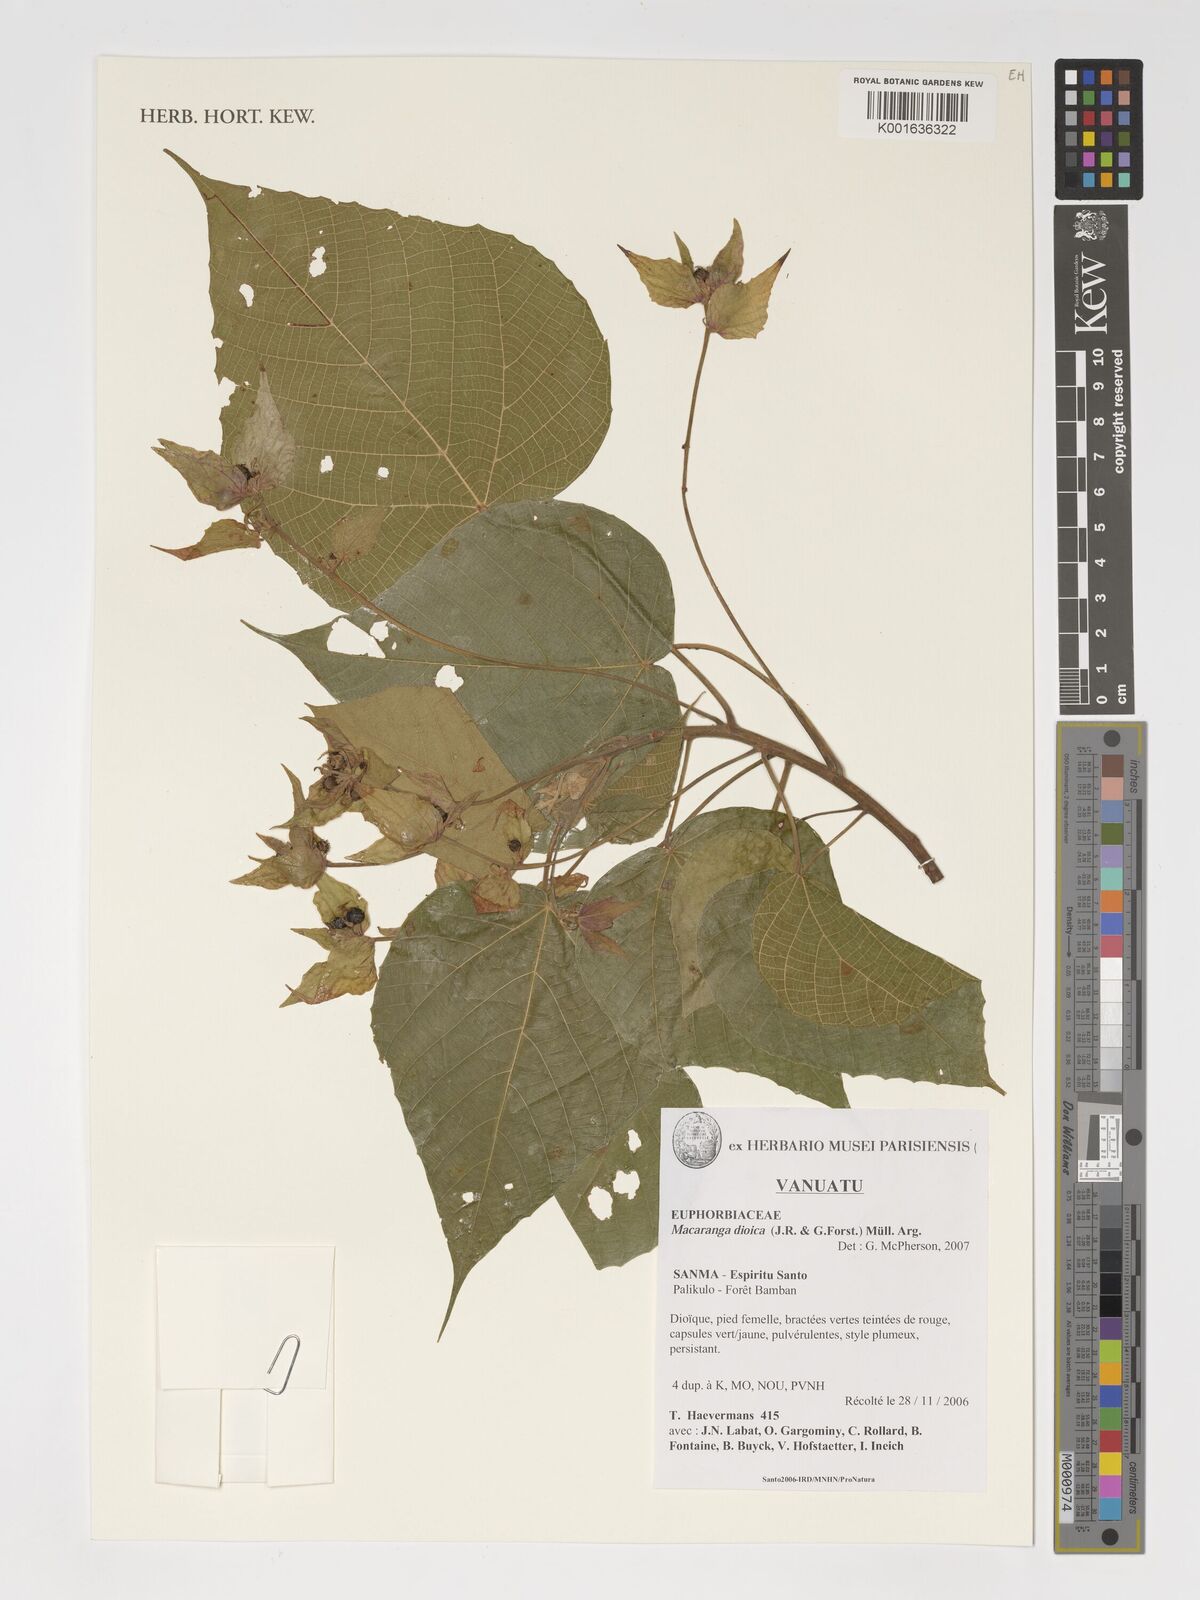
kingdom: Plantae
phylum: Tracheophyta
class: Magnoliopsida
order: Malpighiales
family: Euphorbiaceae
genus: Macaranga
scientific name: Macaranga dioica
